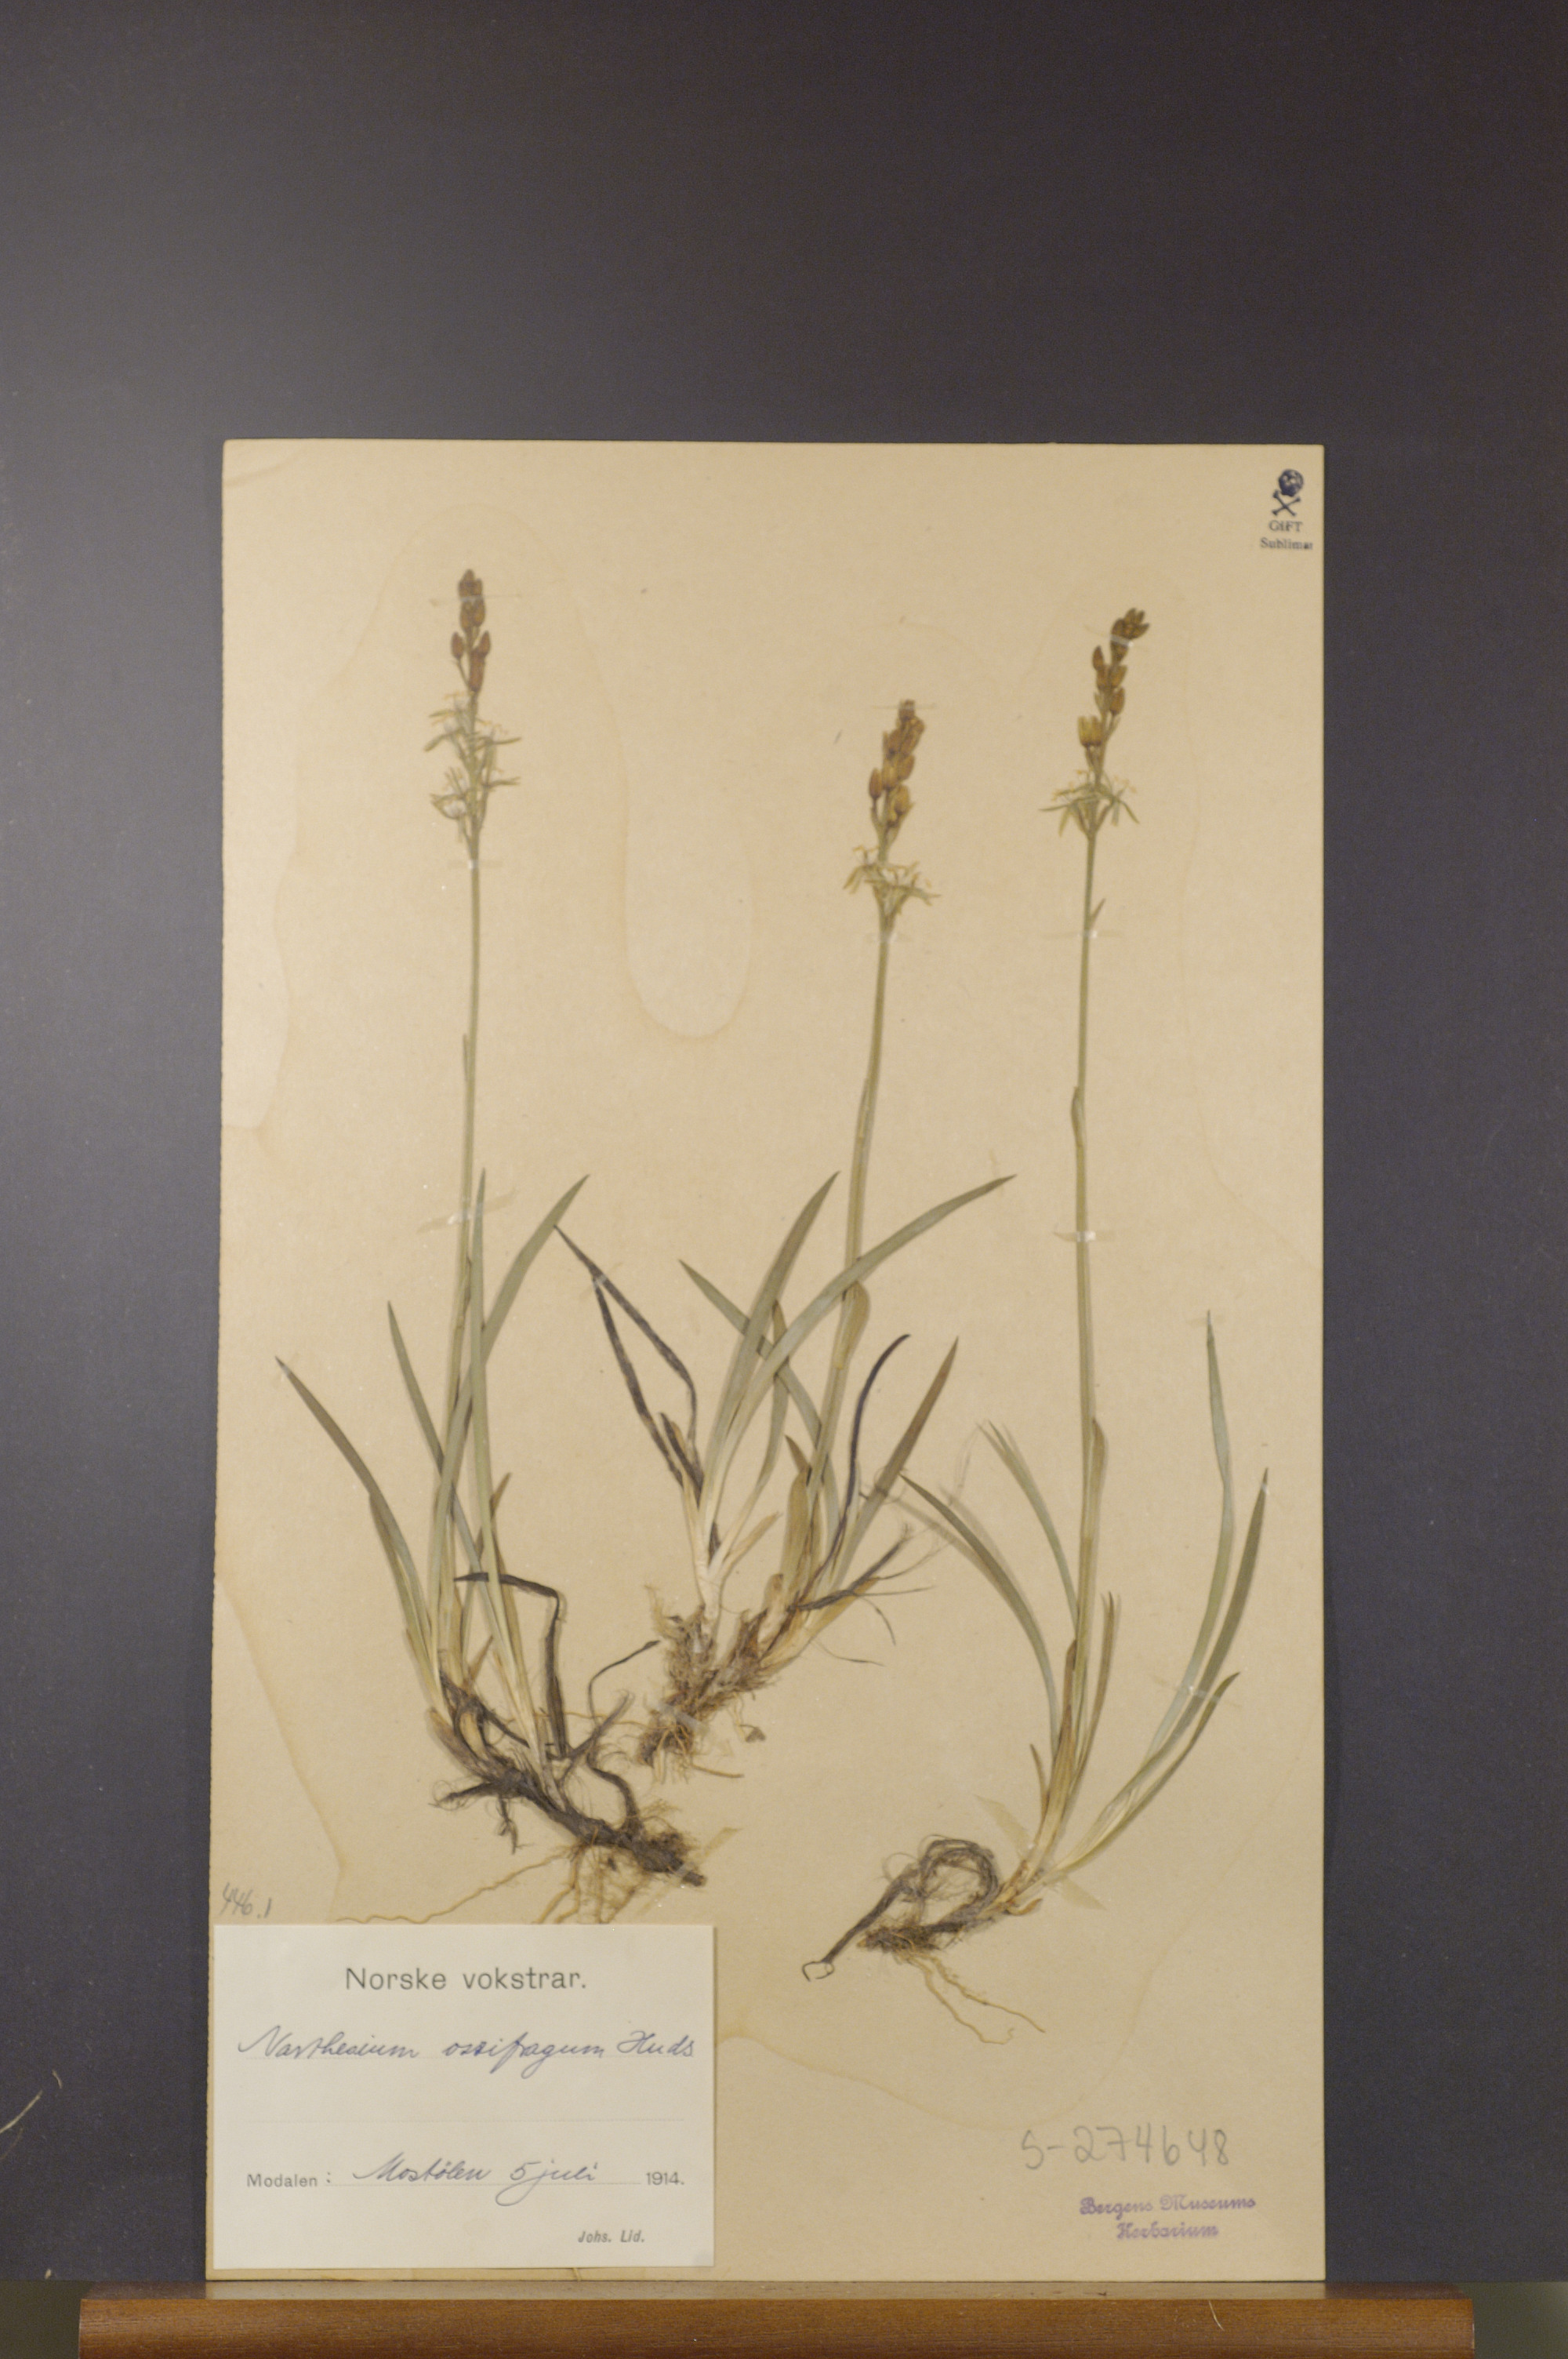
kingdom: Plantae
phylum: Tracheophyta
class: Liliopsida
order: Dioscoreales
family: Nartheciaceae
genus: Narthecium
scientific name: Narthecium ossifragum
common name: Bog asphodel
